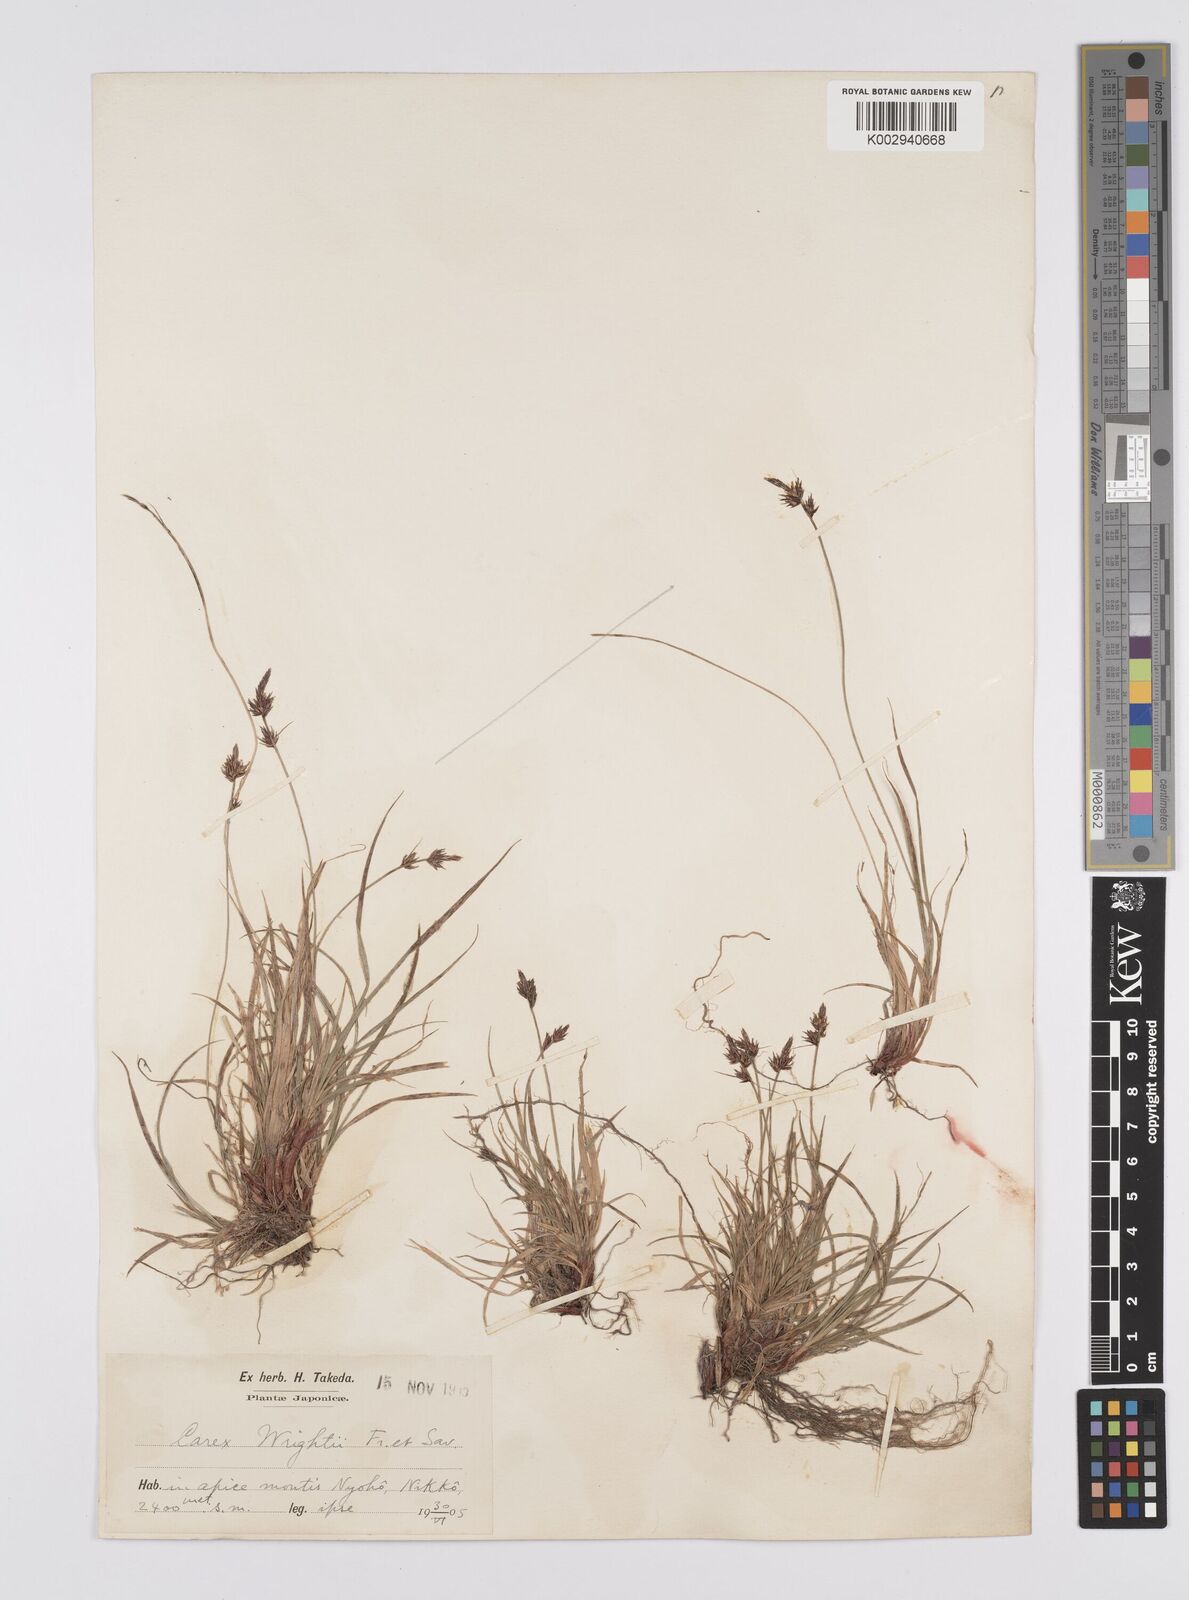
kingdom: Plantae
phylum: Tracheophyta
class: Liliopsida
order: Poales
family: Cyperaceae
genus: Carex
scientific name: Carex oxyandra
